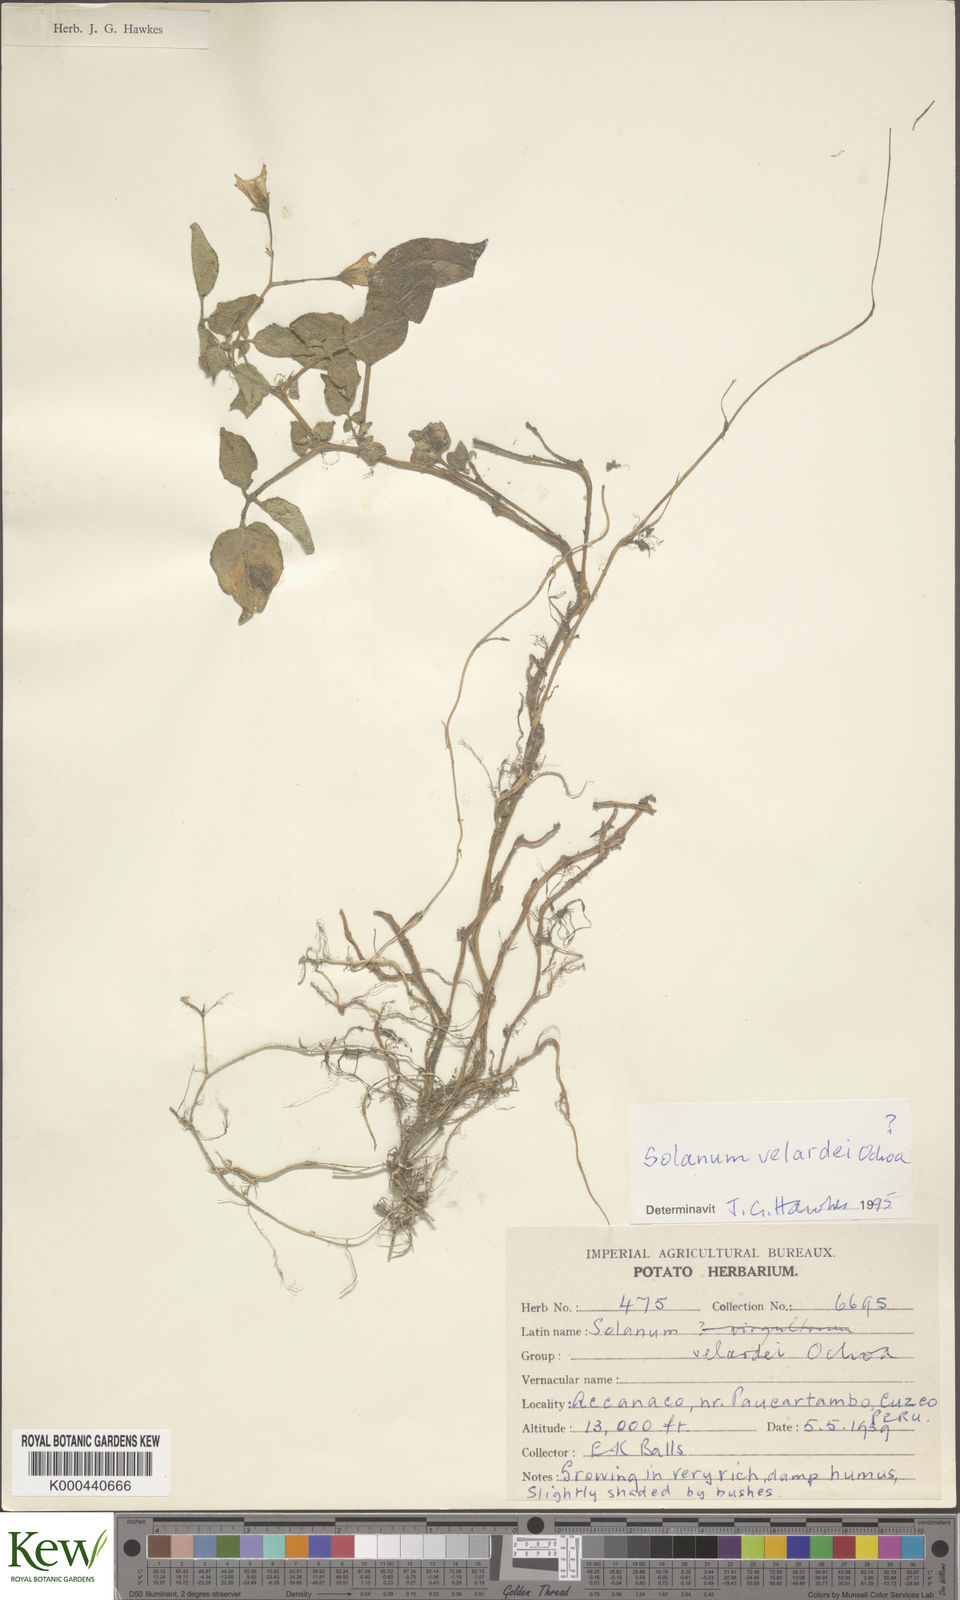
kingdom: Plantae
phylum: Tracheophyta
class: Magnoliopsida
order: Solanales
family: Solanaceae
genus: Solanum
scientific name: Solanum candolleanum
